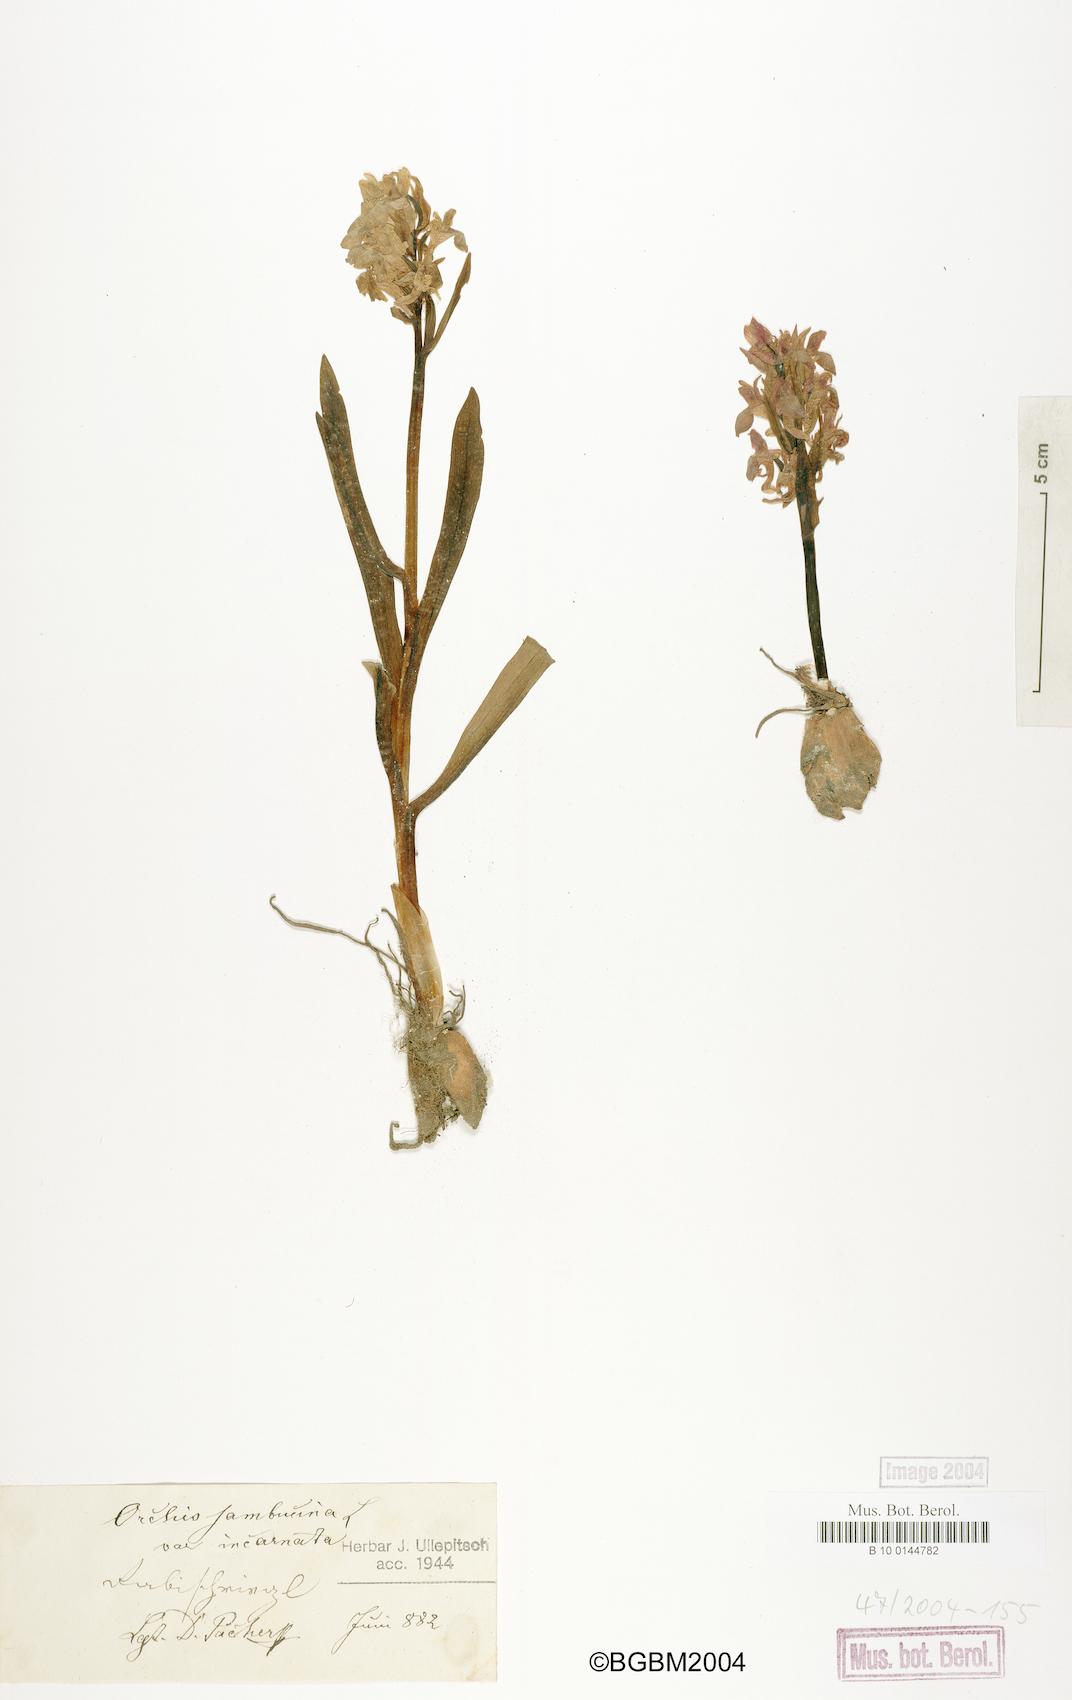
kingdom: Plantae
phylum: Tracheophyta
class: Liliopsida
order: Asparagales
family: Orchidaceae
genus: Dactylorhiza
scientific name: Dactylorhiza sambucina
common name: Elder-flowered orchid
